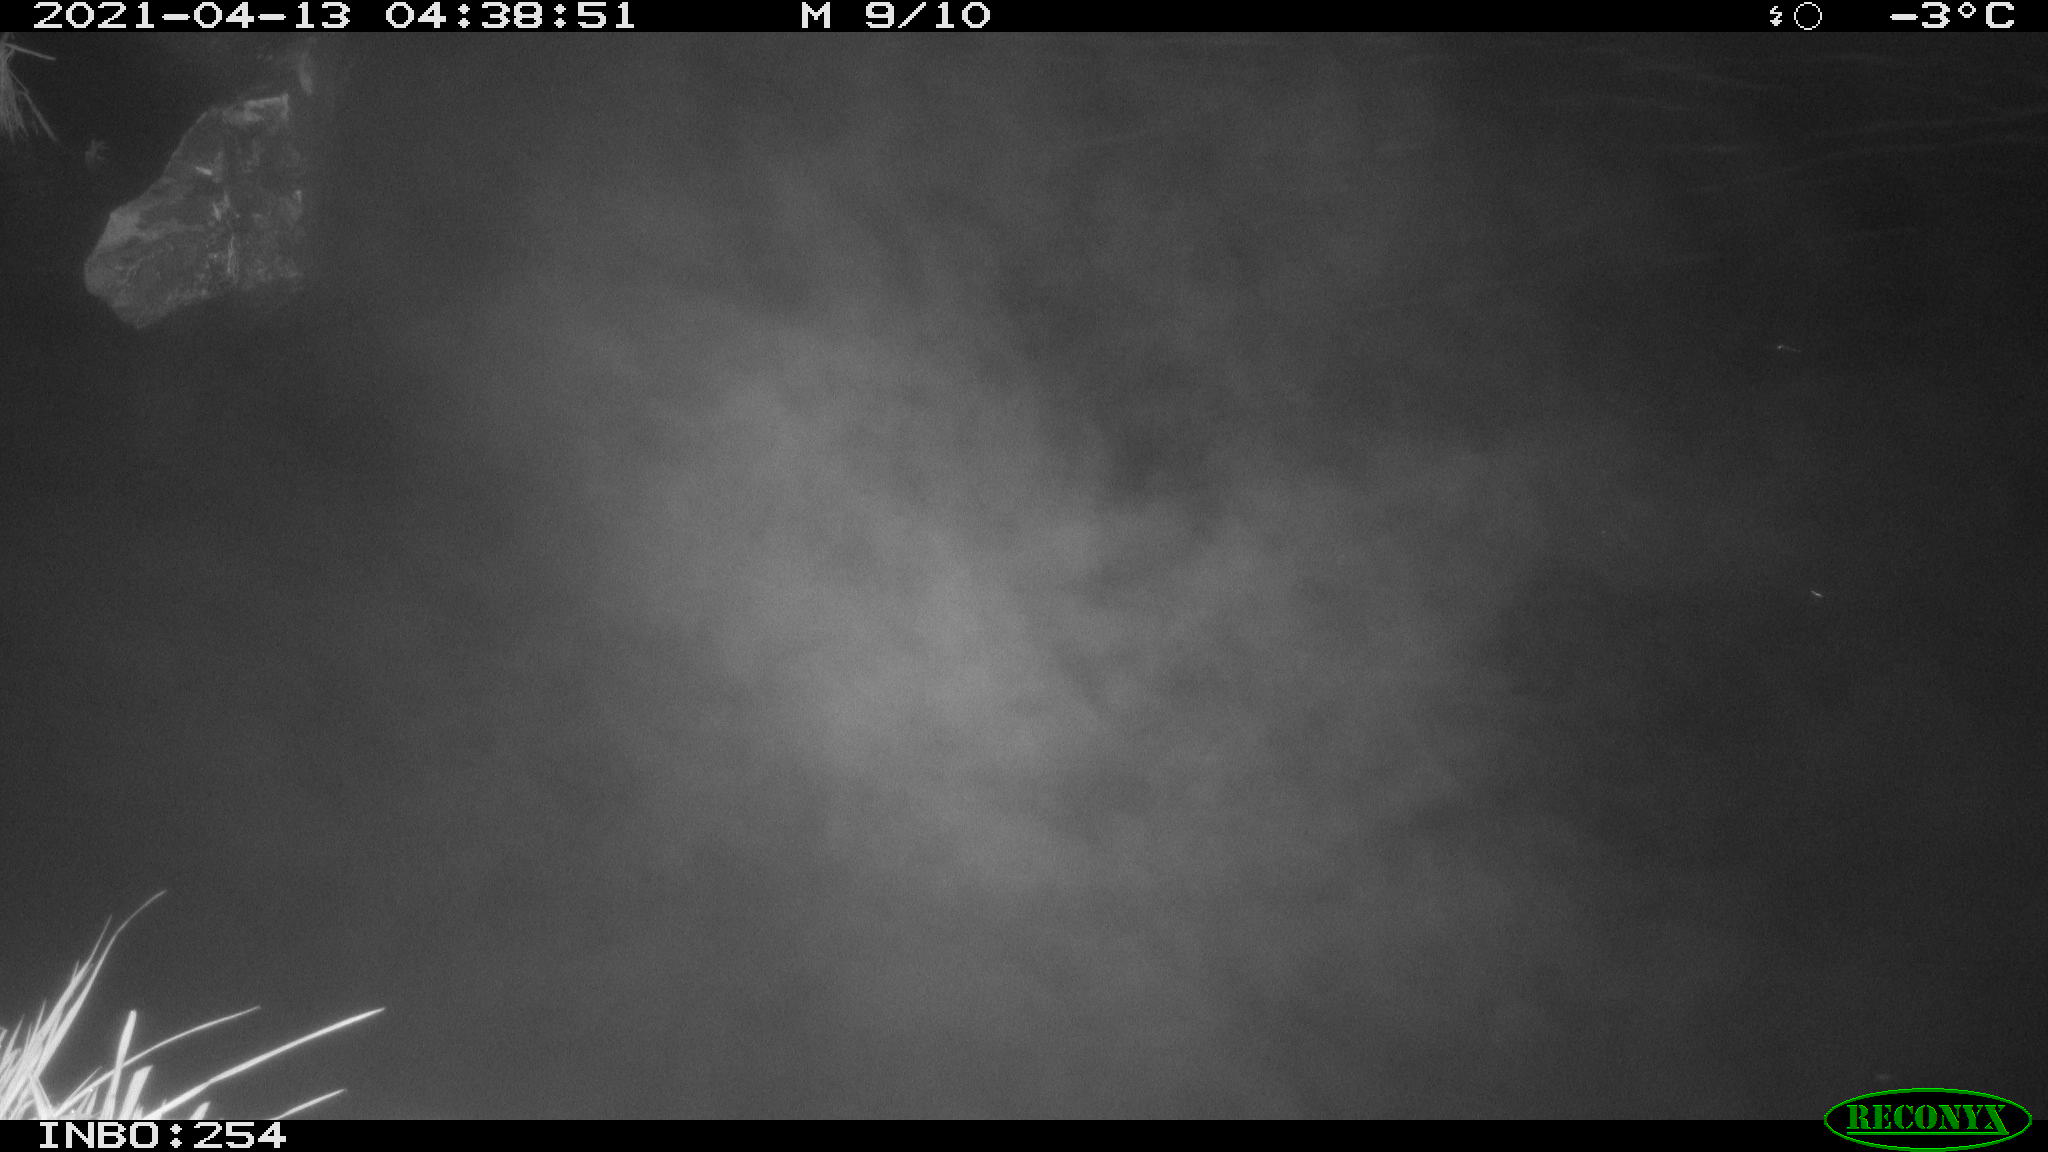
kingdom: Animalia
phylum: Chordata
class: Aves
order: Anseriformes
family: Anatidae
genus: Anas
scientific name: Anas
